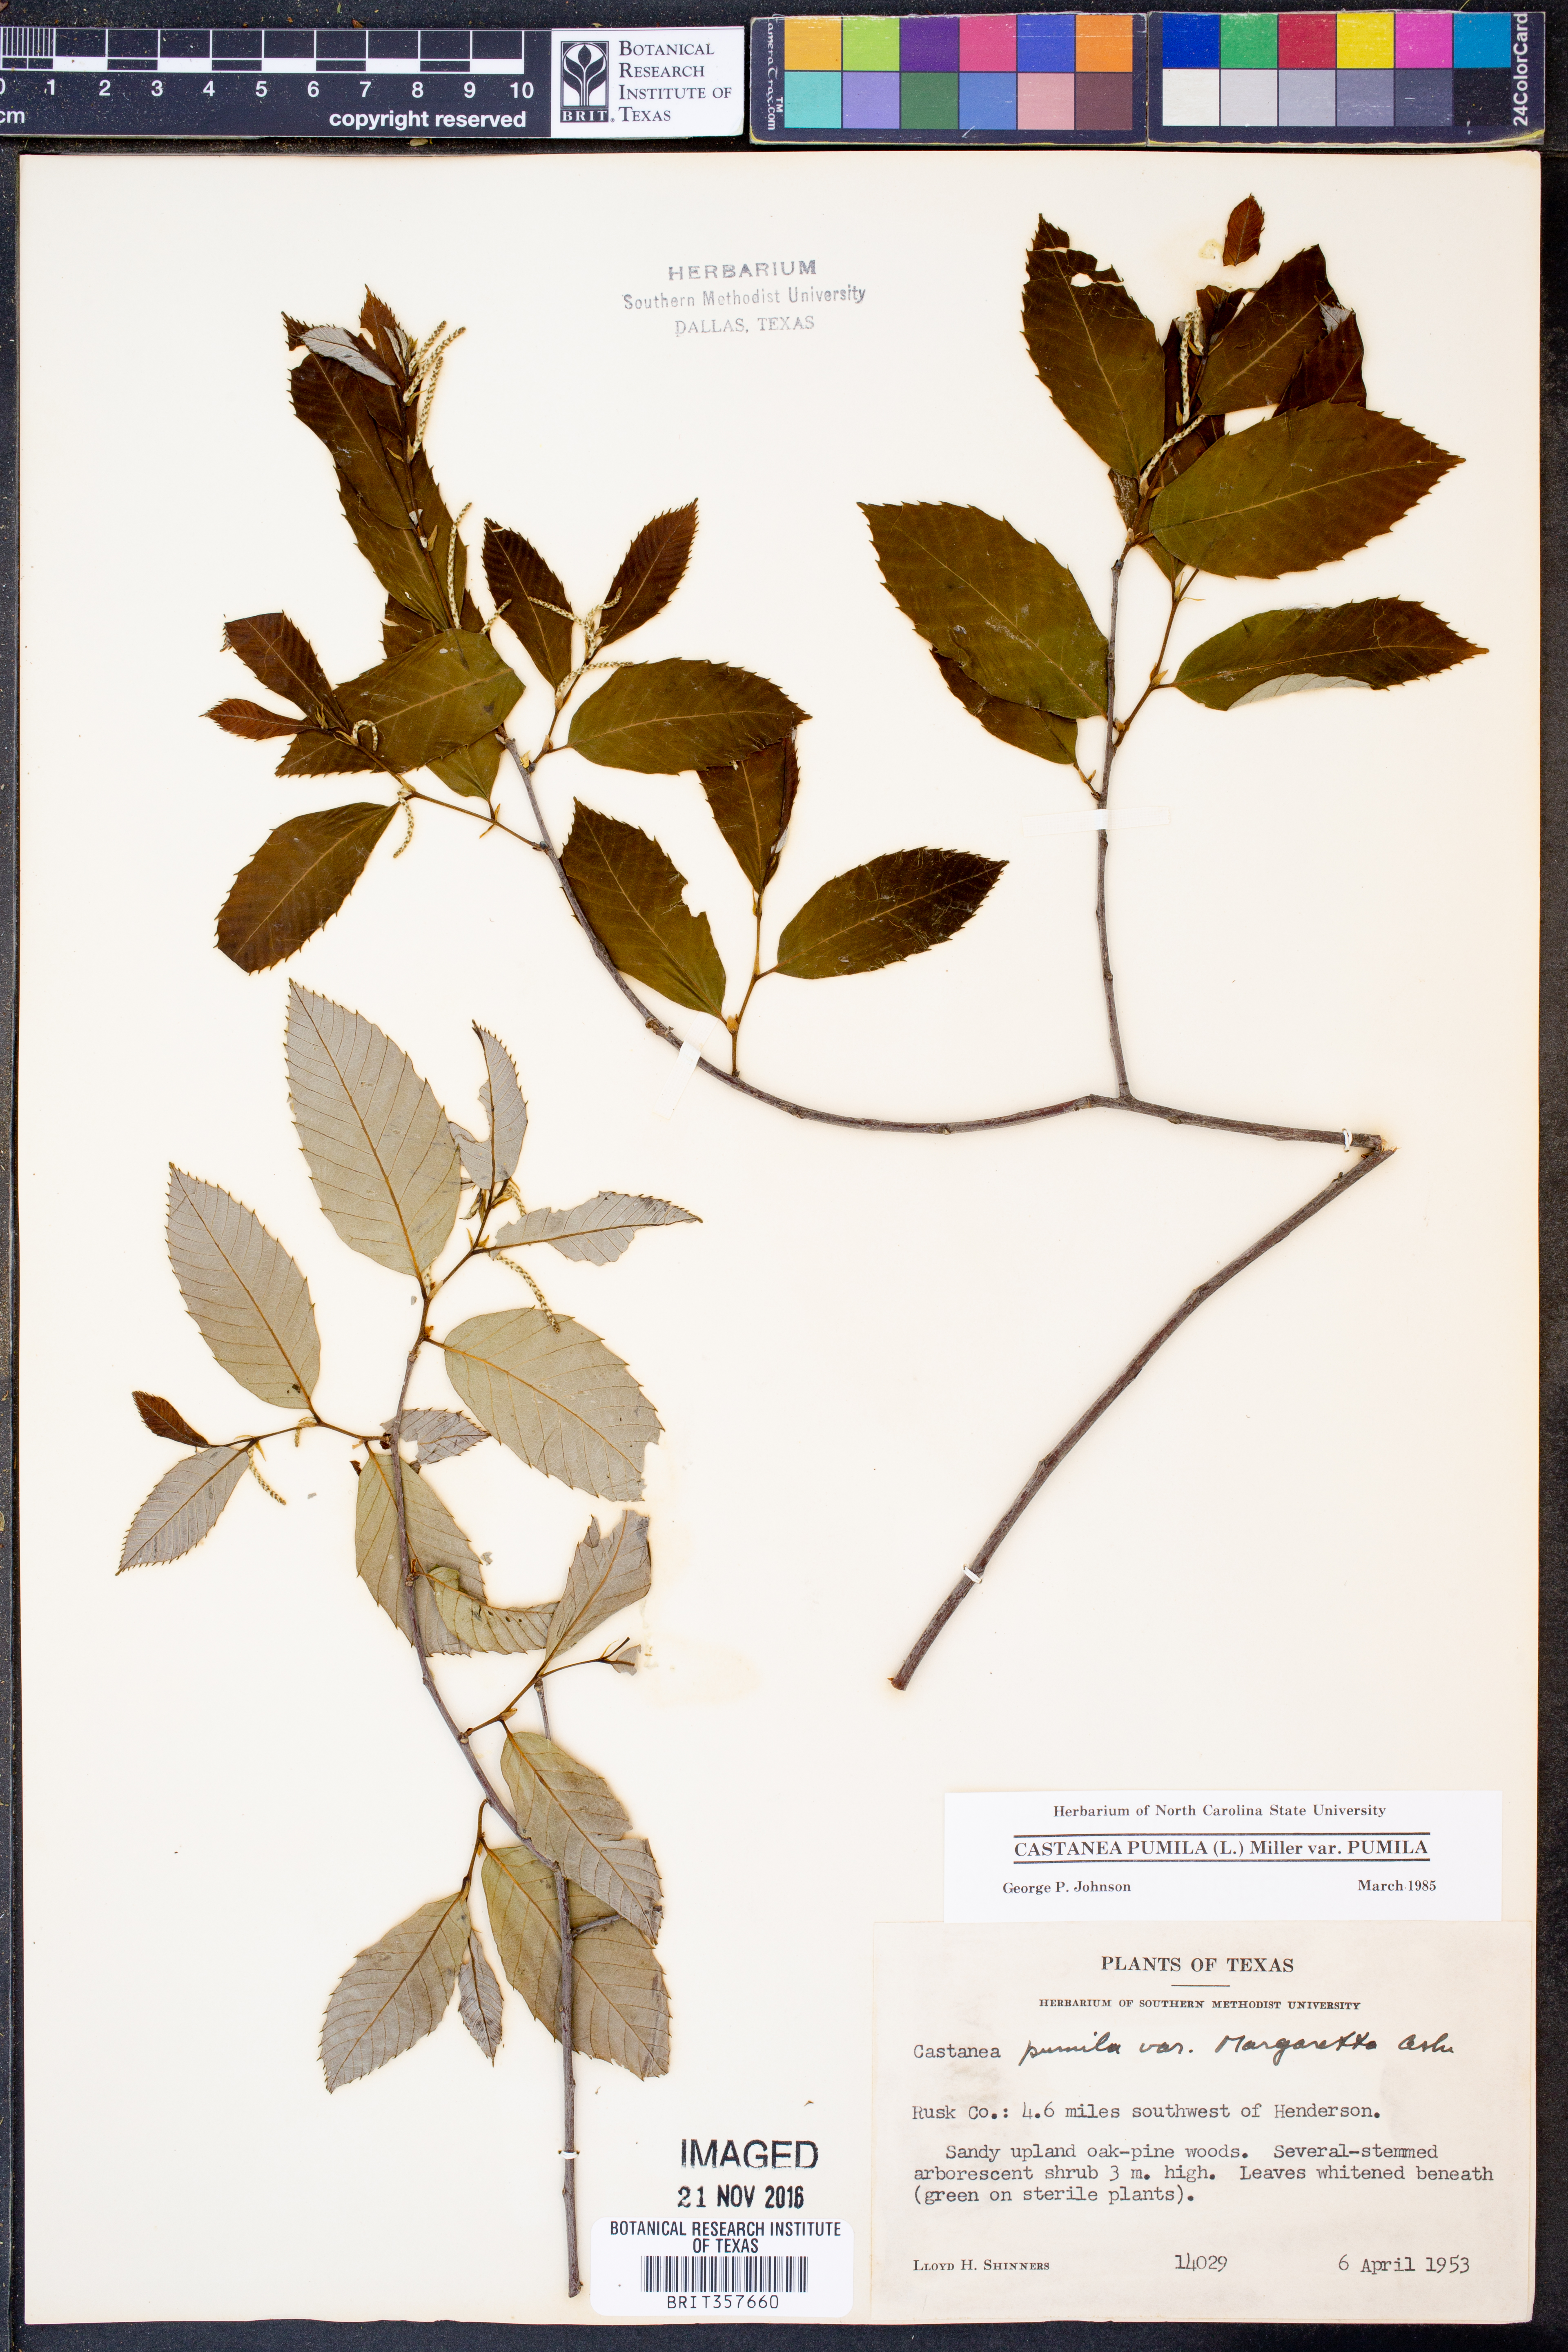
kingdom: Plantae
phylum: Tracheophyta
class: Magnoliopsida
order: Fagales
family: Fagaceae
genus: Castanea
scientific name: Castanea pumila
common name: Chinkapin
